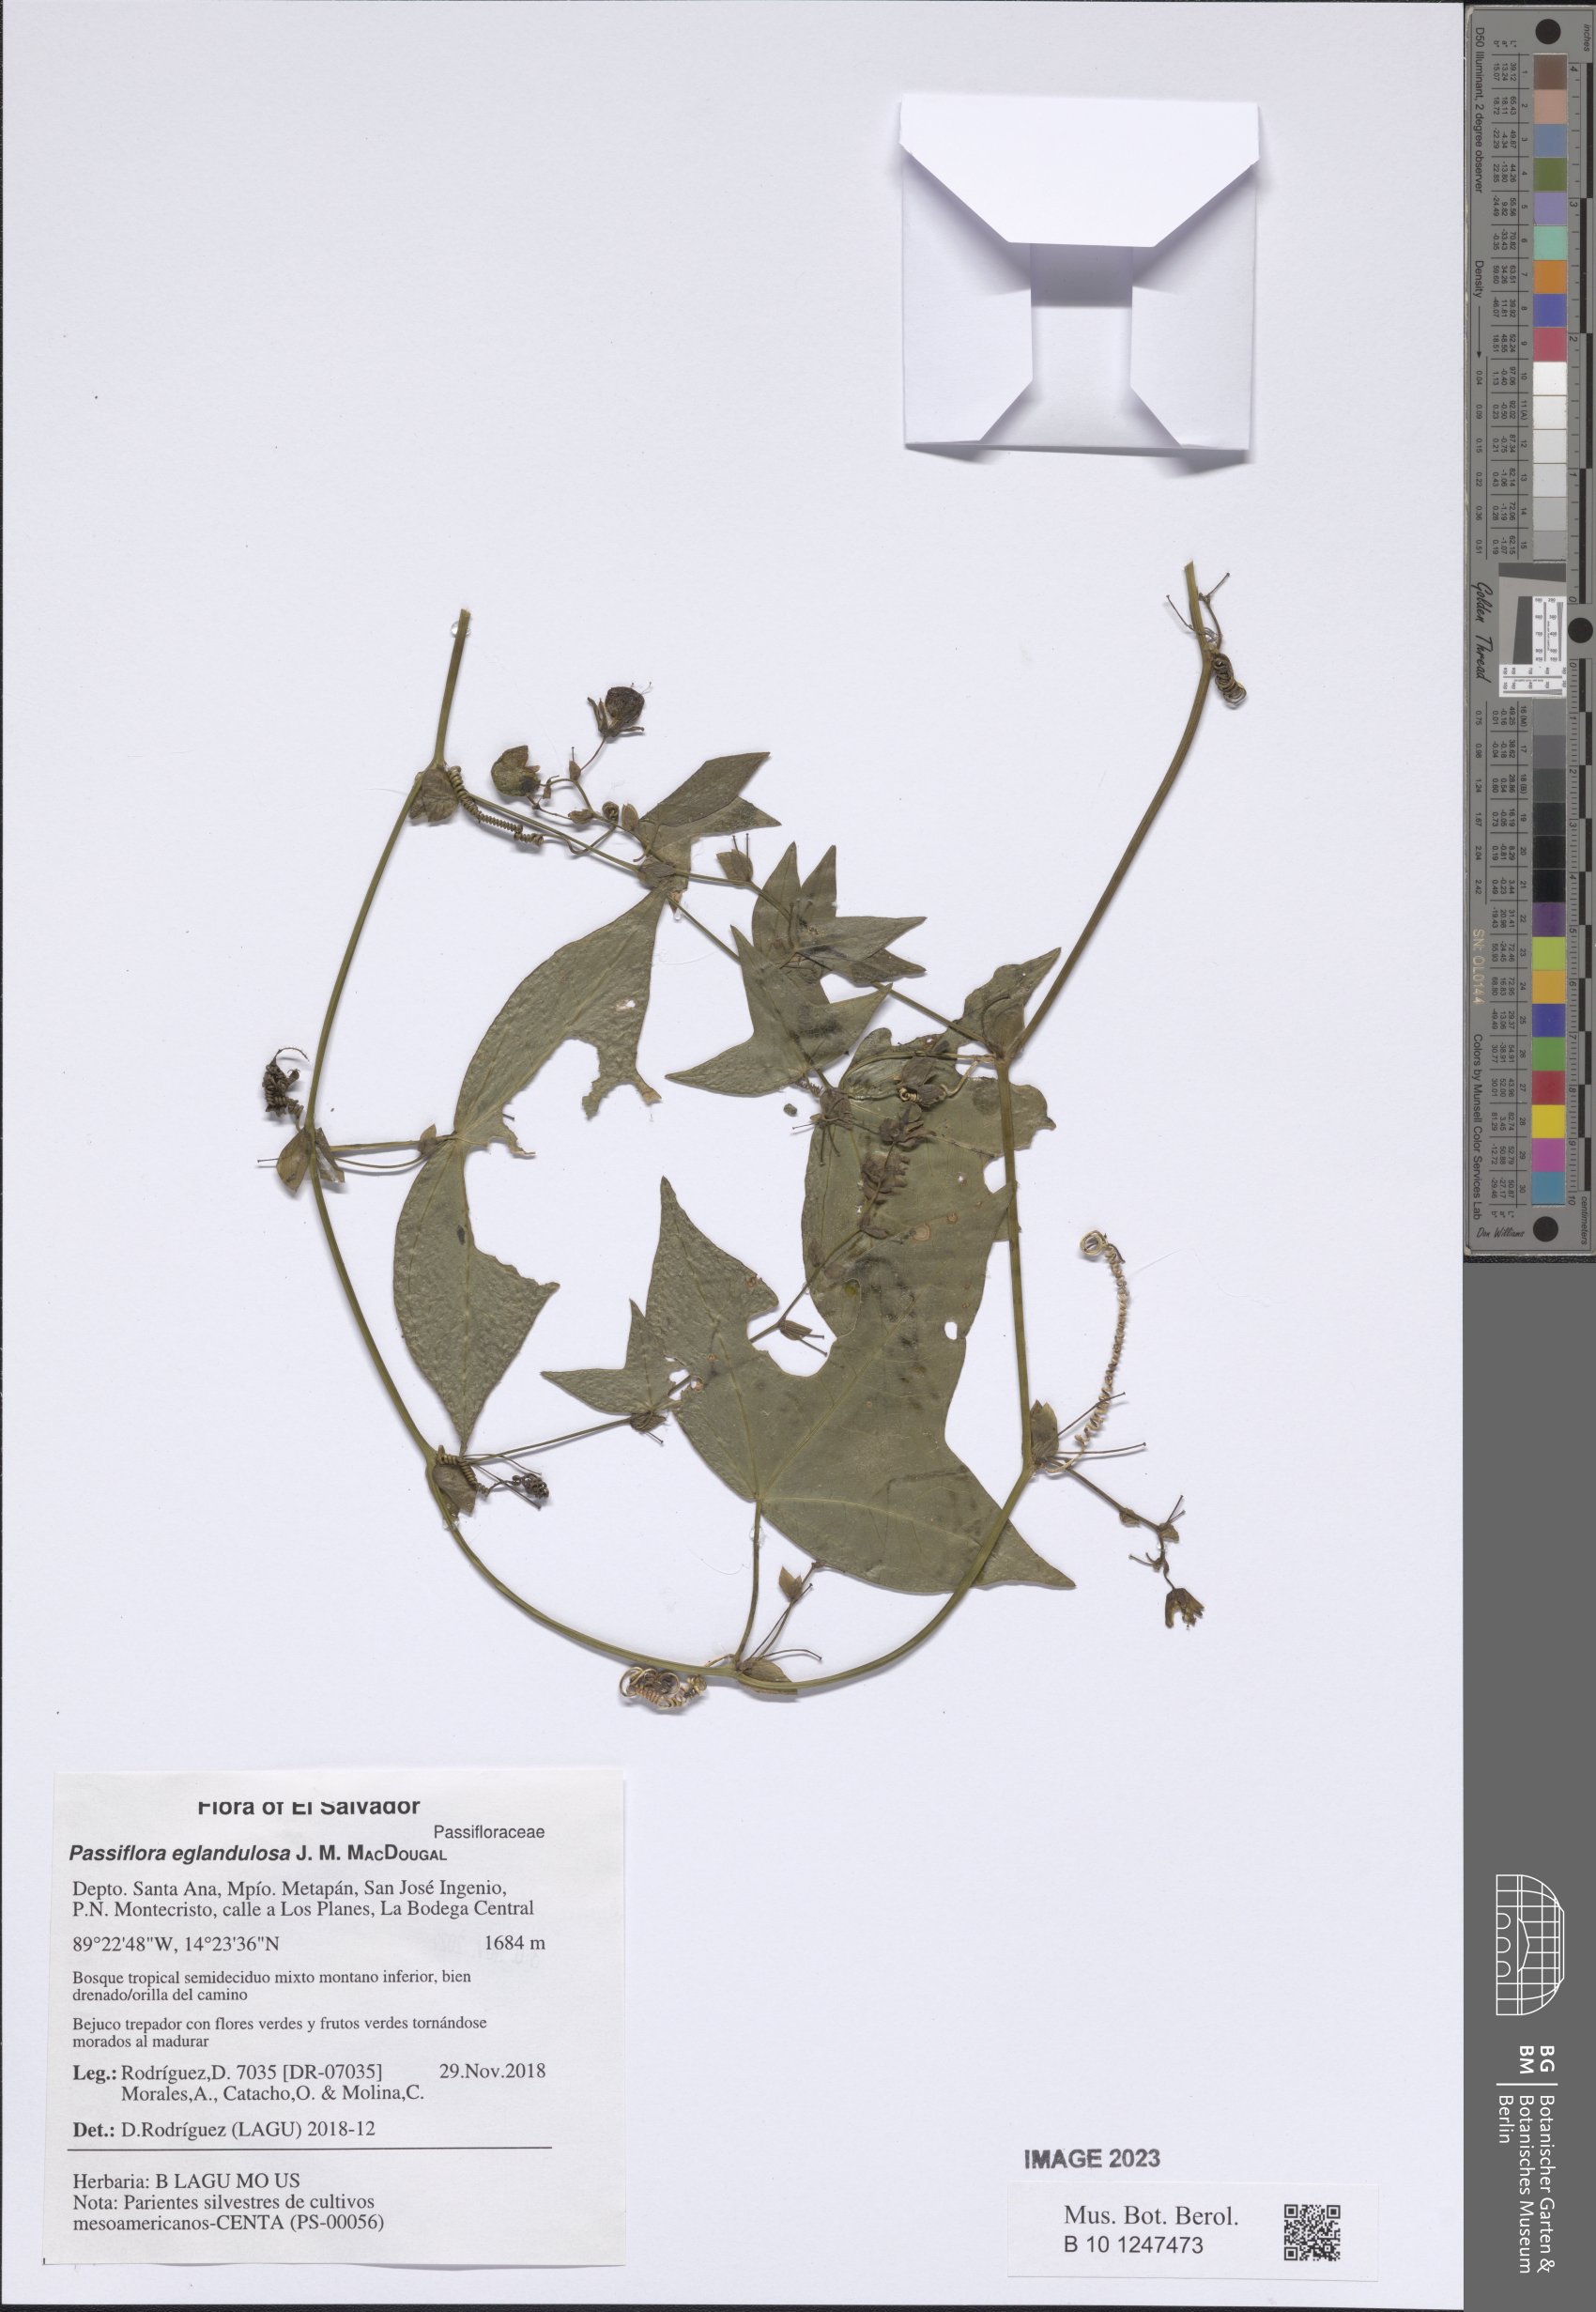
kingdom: Plantae
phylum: Tracheophyta
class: Magnoliopsida
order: Malpighiales
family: Passifloraceae
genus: Passiflora
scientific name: Passiflora eglandulosa
